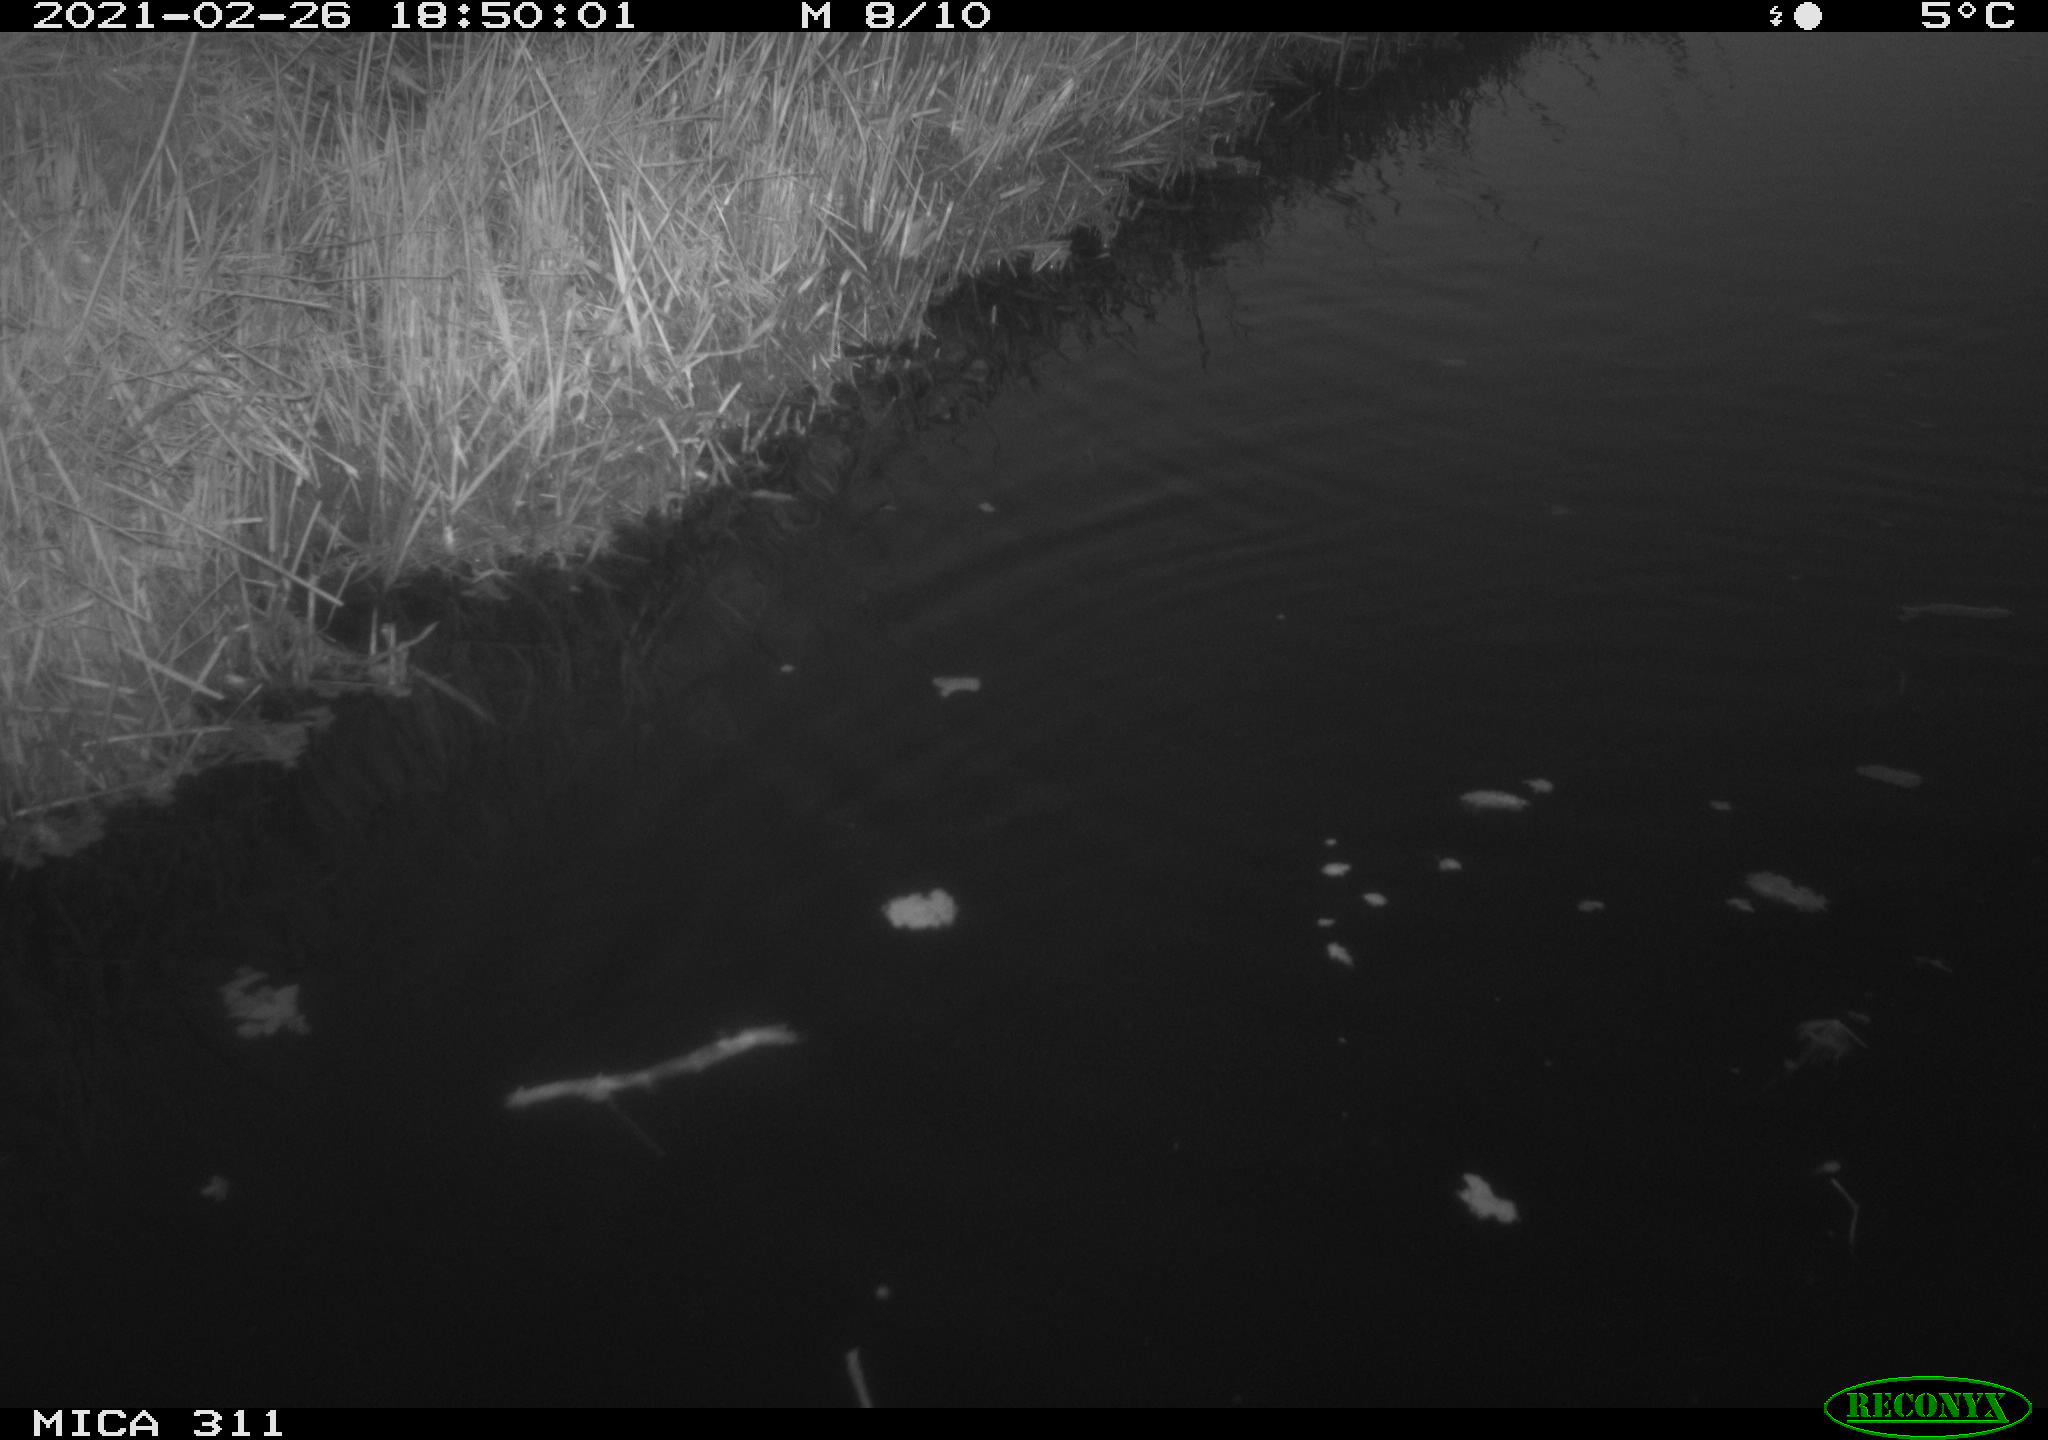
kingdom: Animalia
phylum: Chordata
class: Aves
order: Gruiformes
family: Rallidae
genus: Fulica
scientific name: Fulica atra
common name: Eurasian coot
